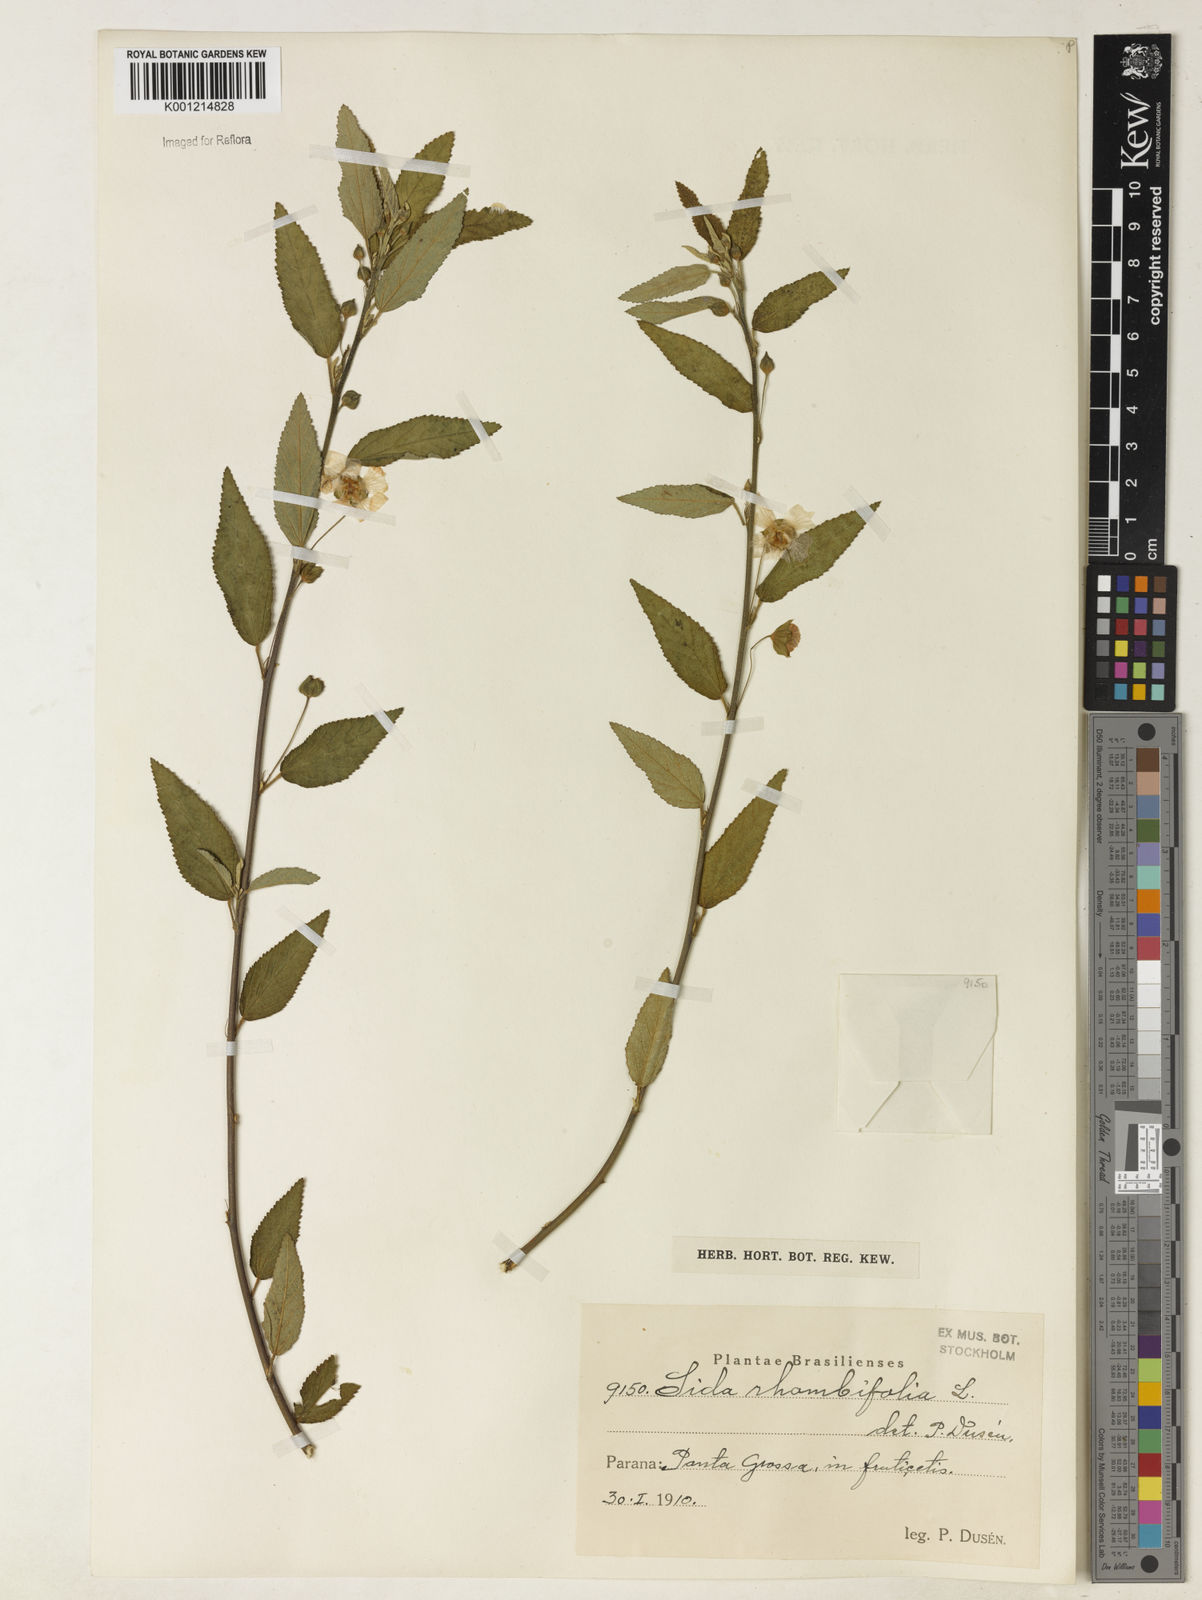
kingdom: Plantae
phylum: Tracheophyta
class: Magnoliopsida
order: Malvales
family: Malvaceae
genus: Sida
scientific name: Sida rhombifolia
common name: Queensland-hemp
